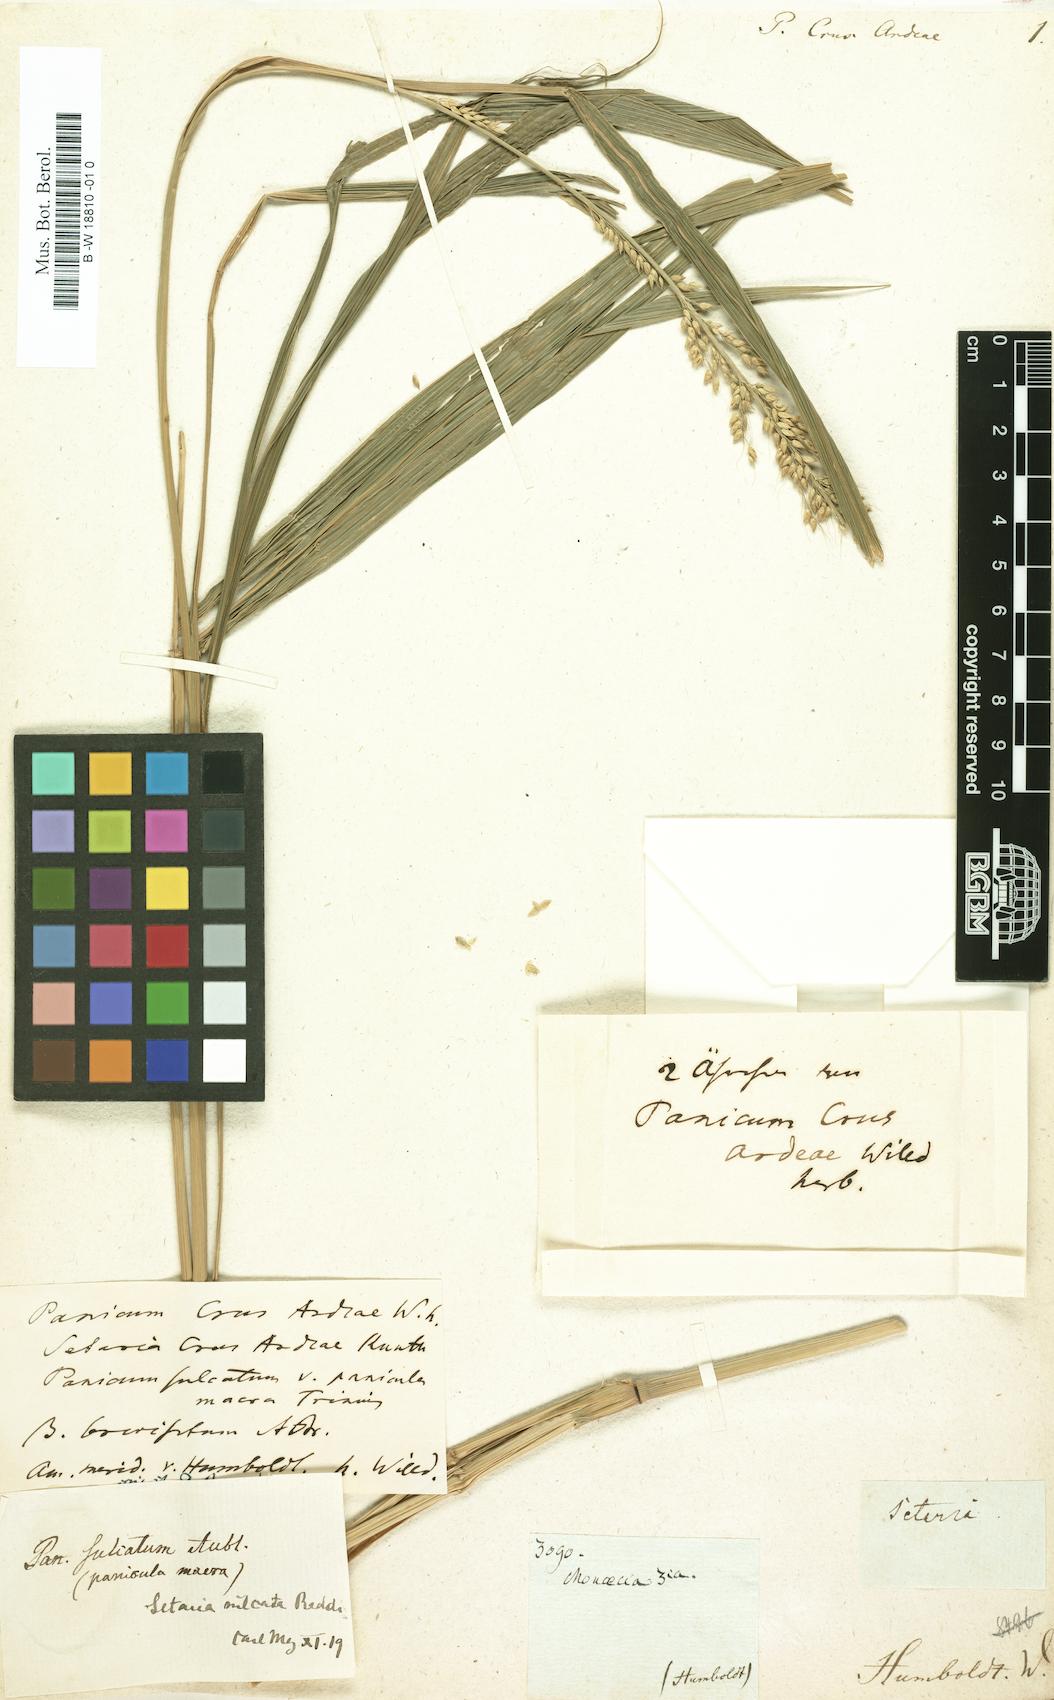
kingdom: Plantae
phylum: Tracheophyta
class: Liliopsida
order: Poales
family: Poaceae
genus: Setaria
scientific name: Setaria sulcata
